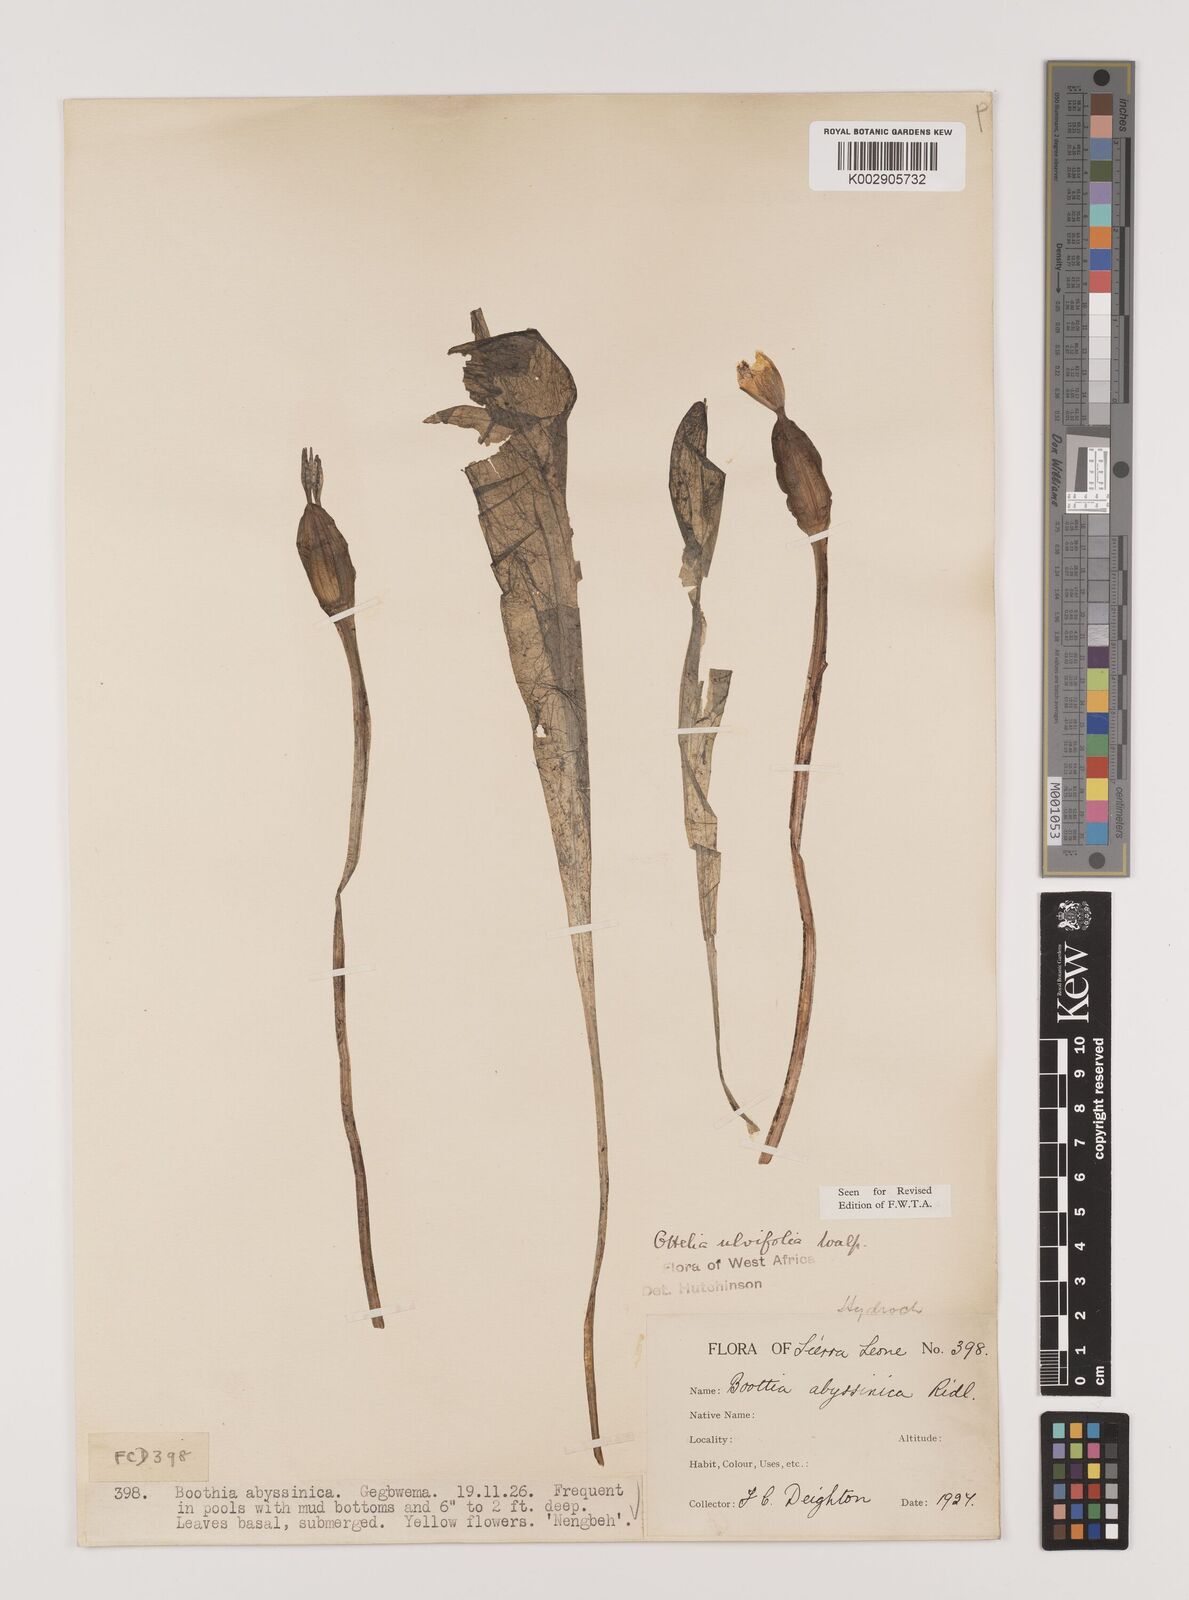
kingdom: Plantae
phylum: Tracheophyta
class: Liliopsida
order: Alismatales
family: Hydrocharitaceae
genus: Ottelia
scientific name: Ottelia ulvifolia
